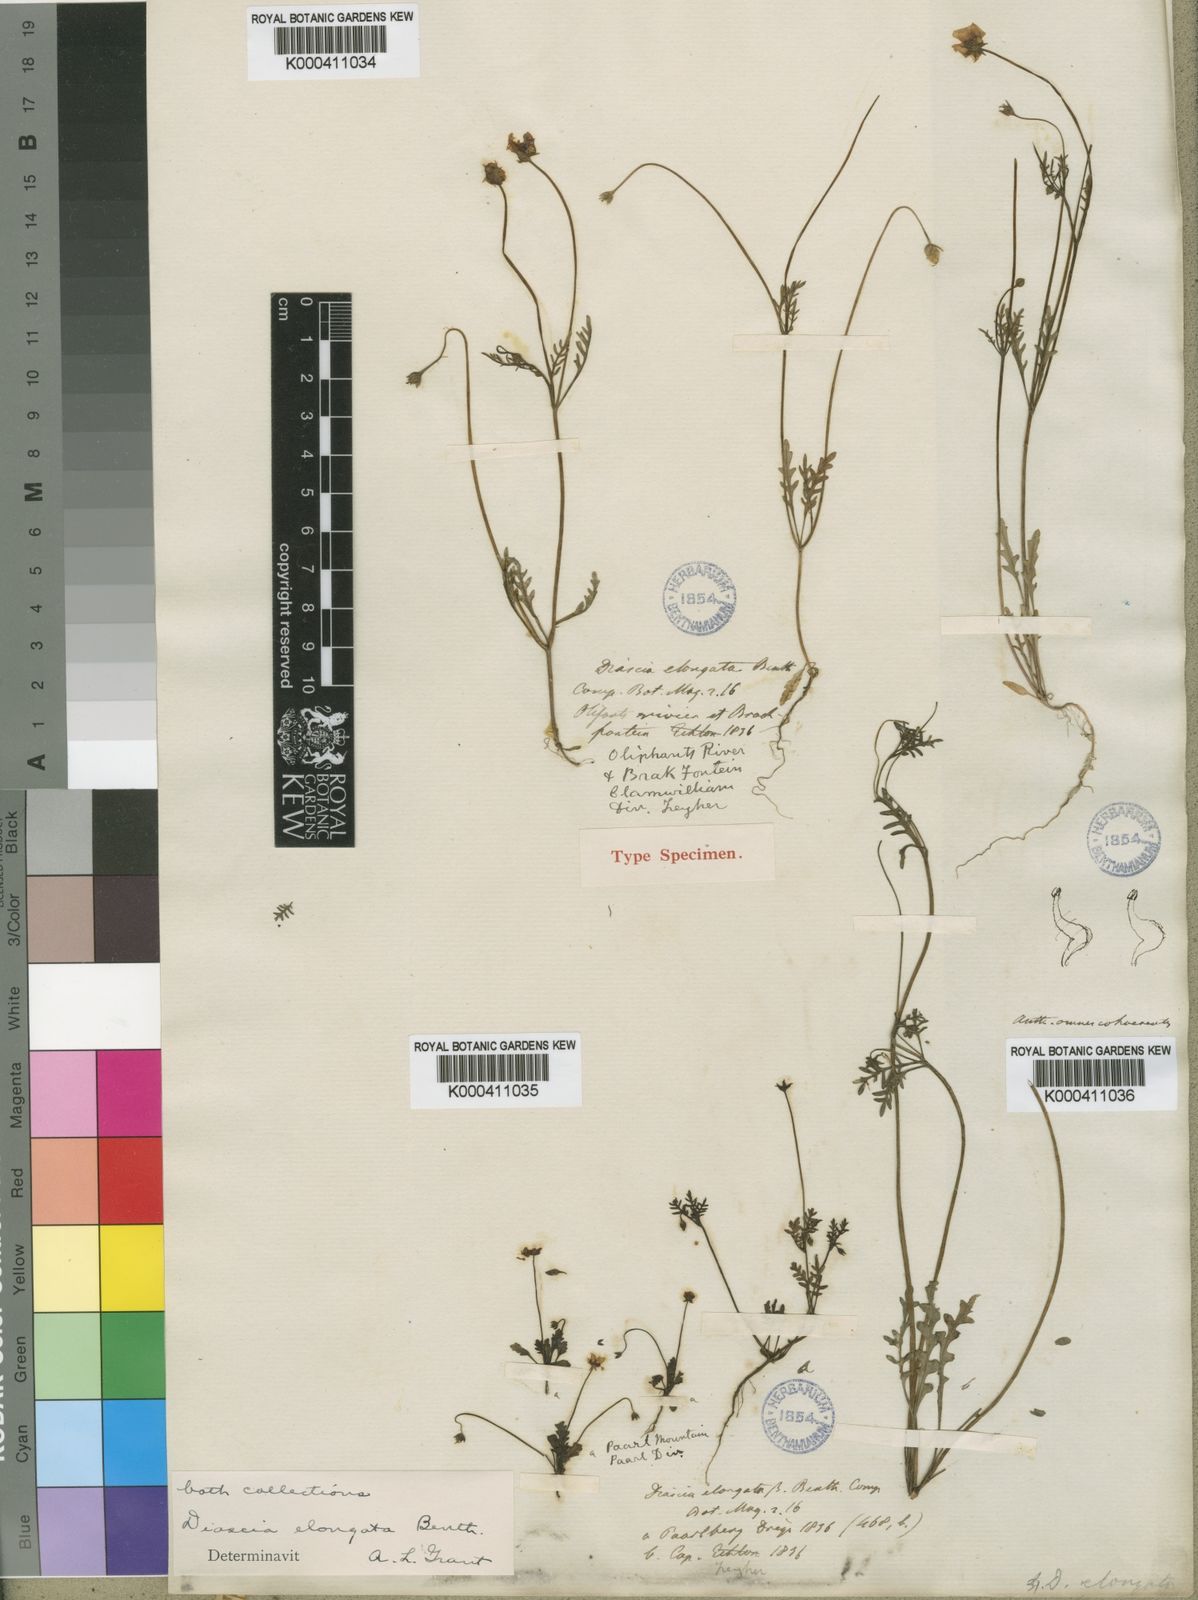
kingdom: Plantae
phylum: Tracheophyta
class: Magnoliopsida
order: Lamiales
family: Scrophulariaceae
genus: Diascia
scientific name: Diascia elongata
